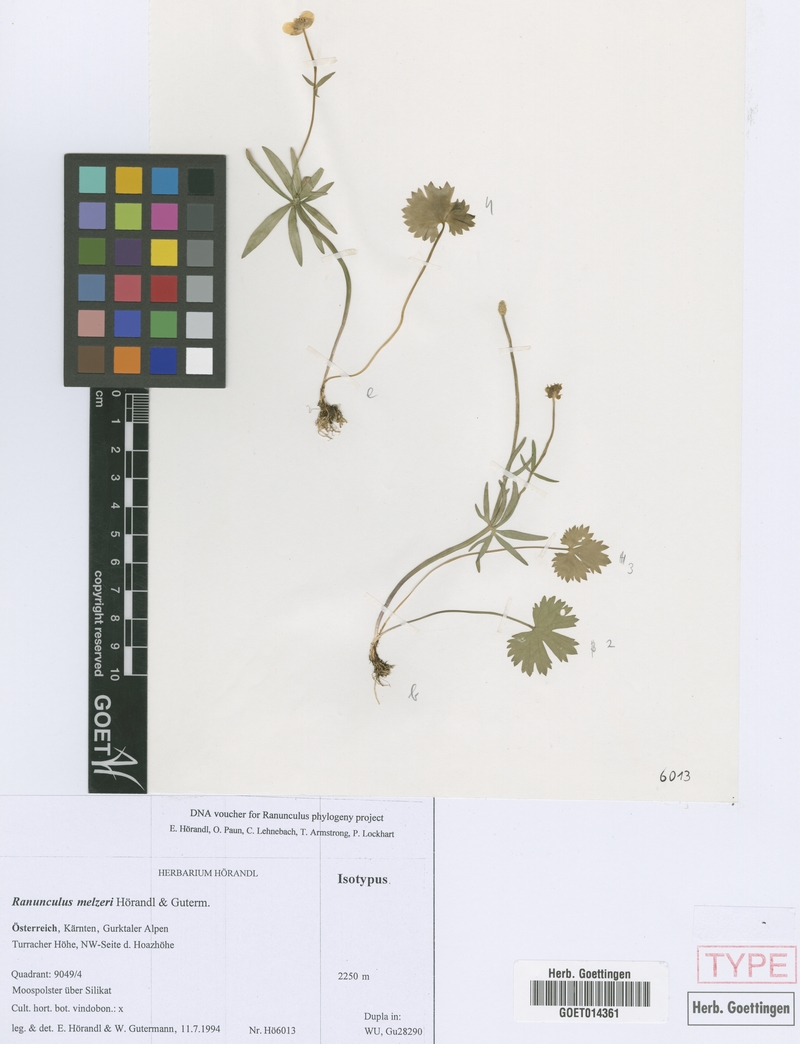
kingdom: Plantae
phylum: Tracheophyta
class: Magnoliopsida
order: Ranunculales
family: Ranunculaceae
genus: Ranunculus
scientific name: Ranunculus melzeri
